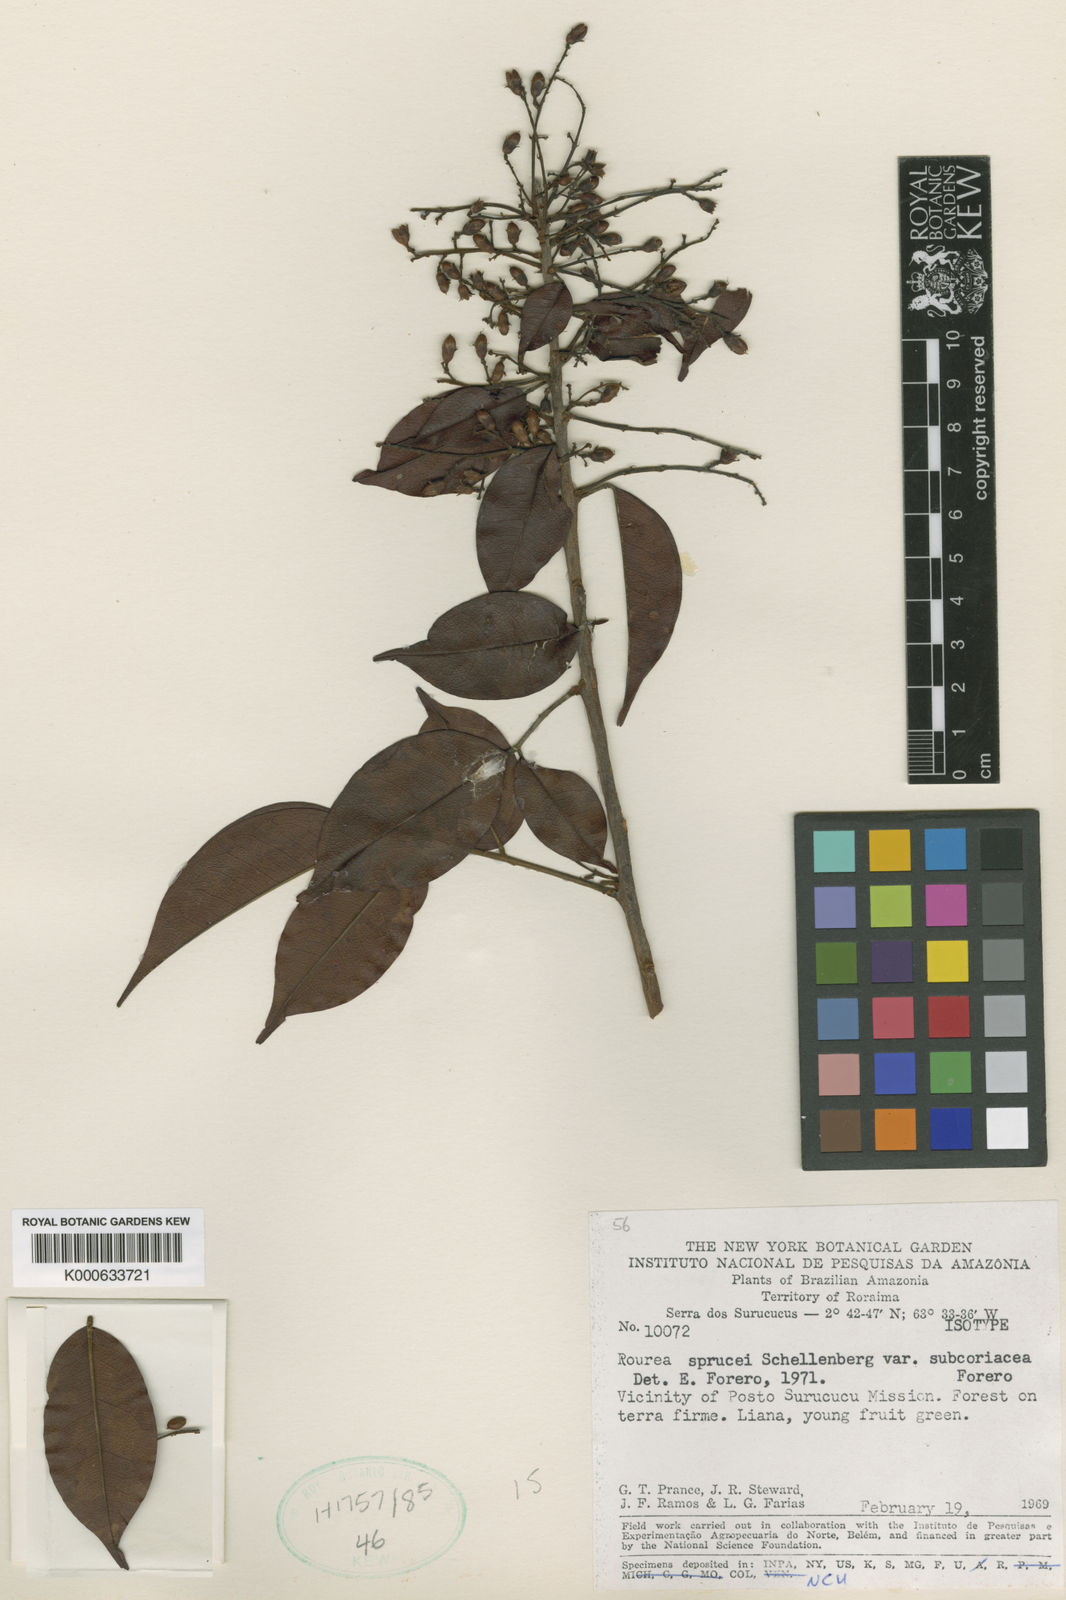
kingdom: Plantae
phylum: Tracheophyta
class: Magnoliopsida
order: Oxalidales
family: Connaraceae
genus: Rourea
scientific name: Rourea sprucei
